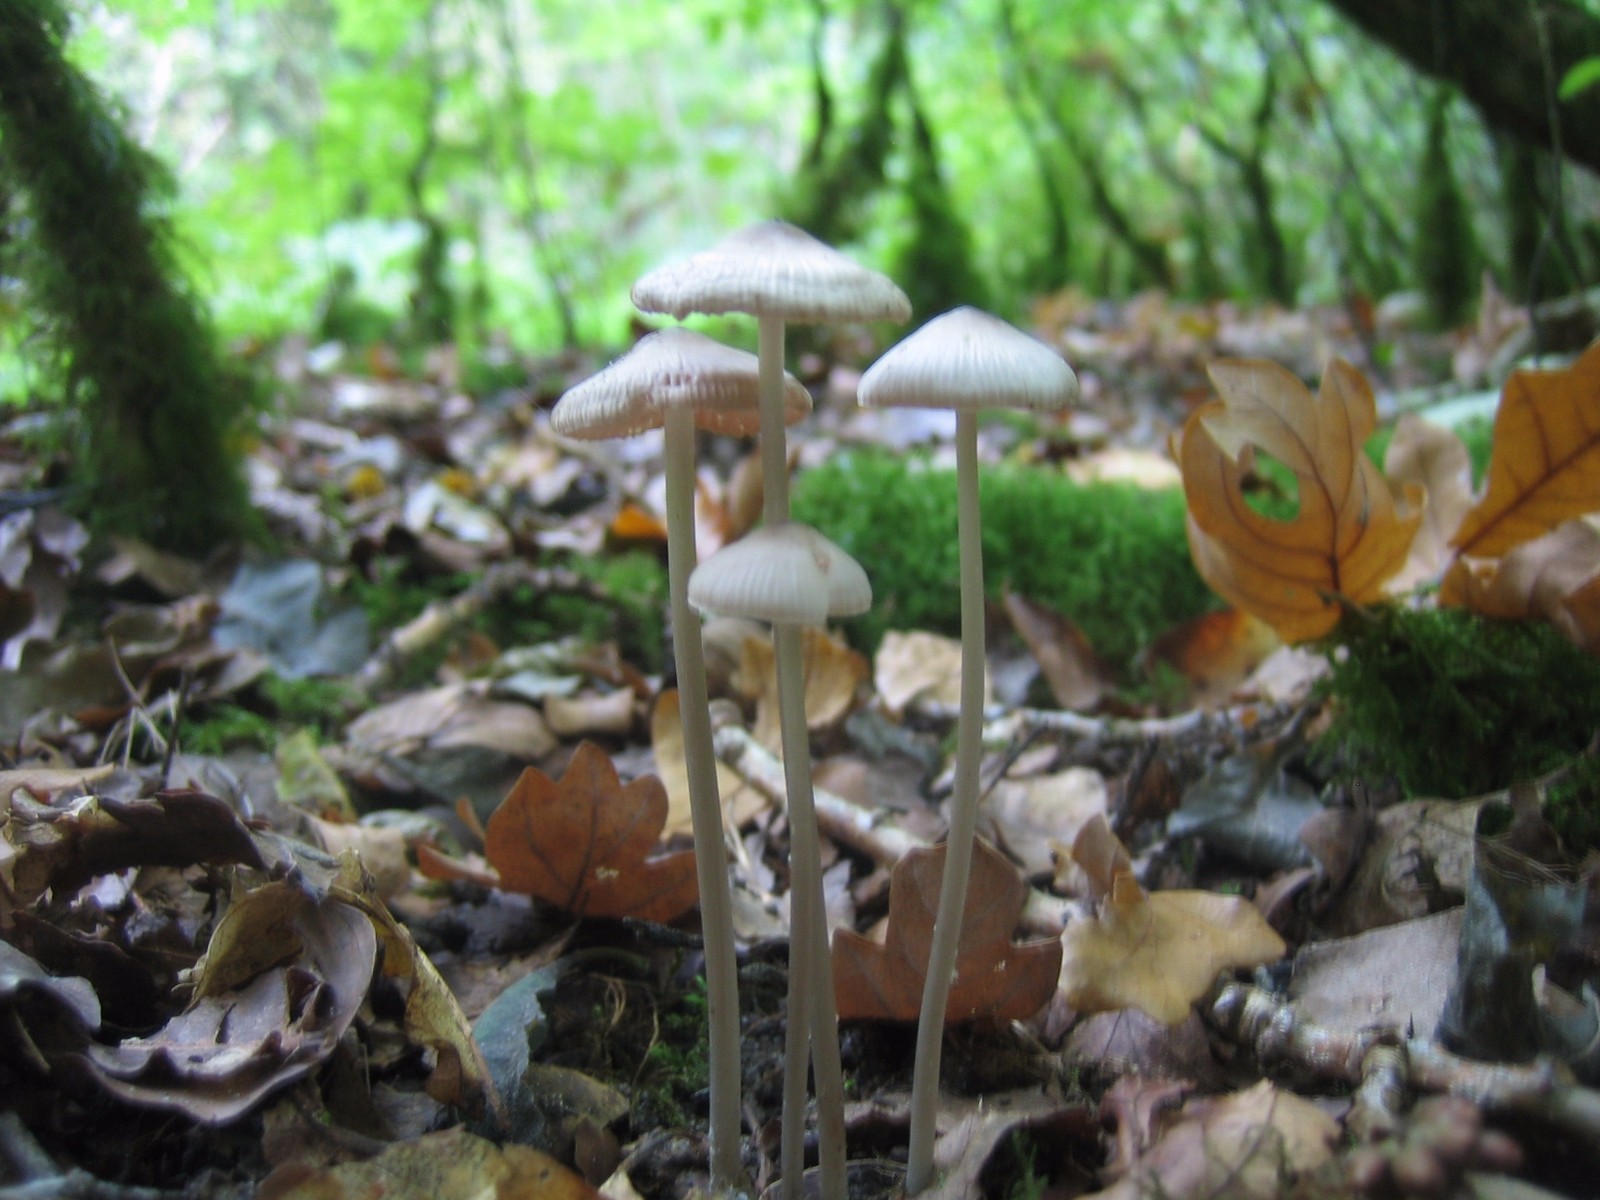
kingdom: Fungi
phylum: Basidiomycota
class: Agaricomycetes
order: Agaricales
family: Mycenaceae
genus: Mycena
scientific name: Mycena polygramma
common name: mangestribet huesvamp
